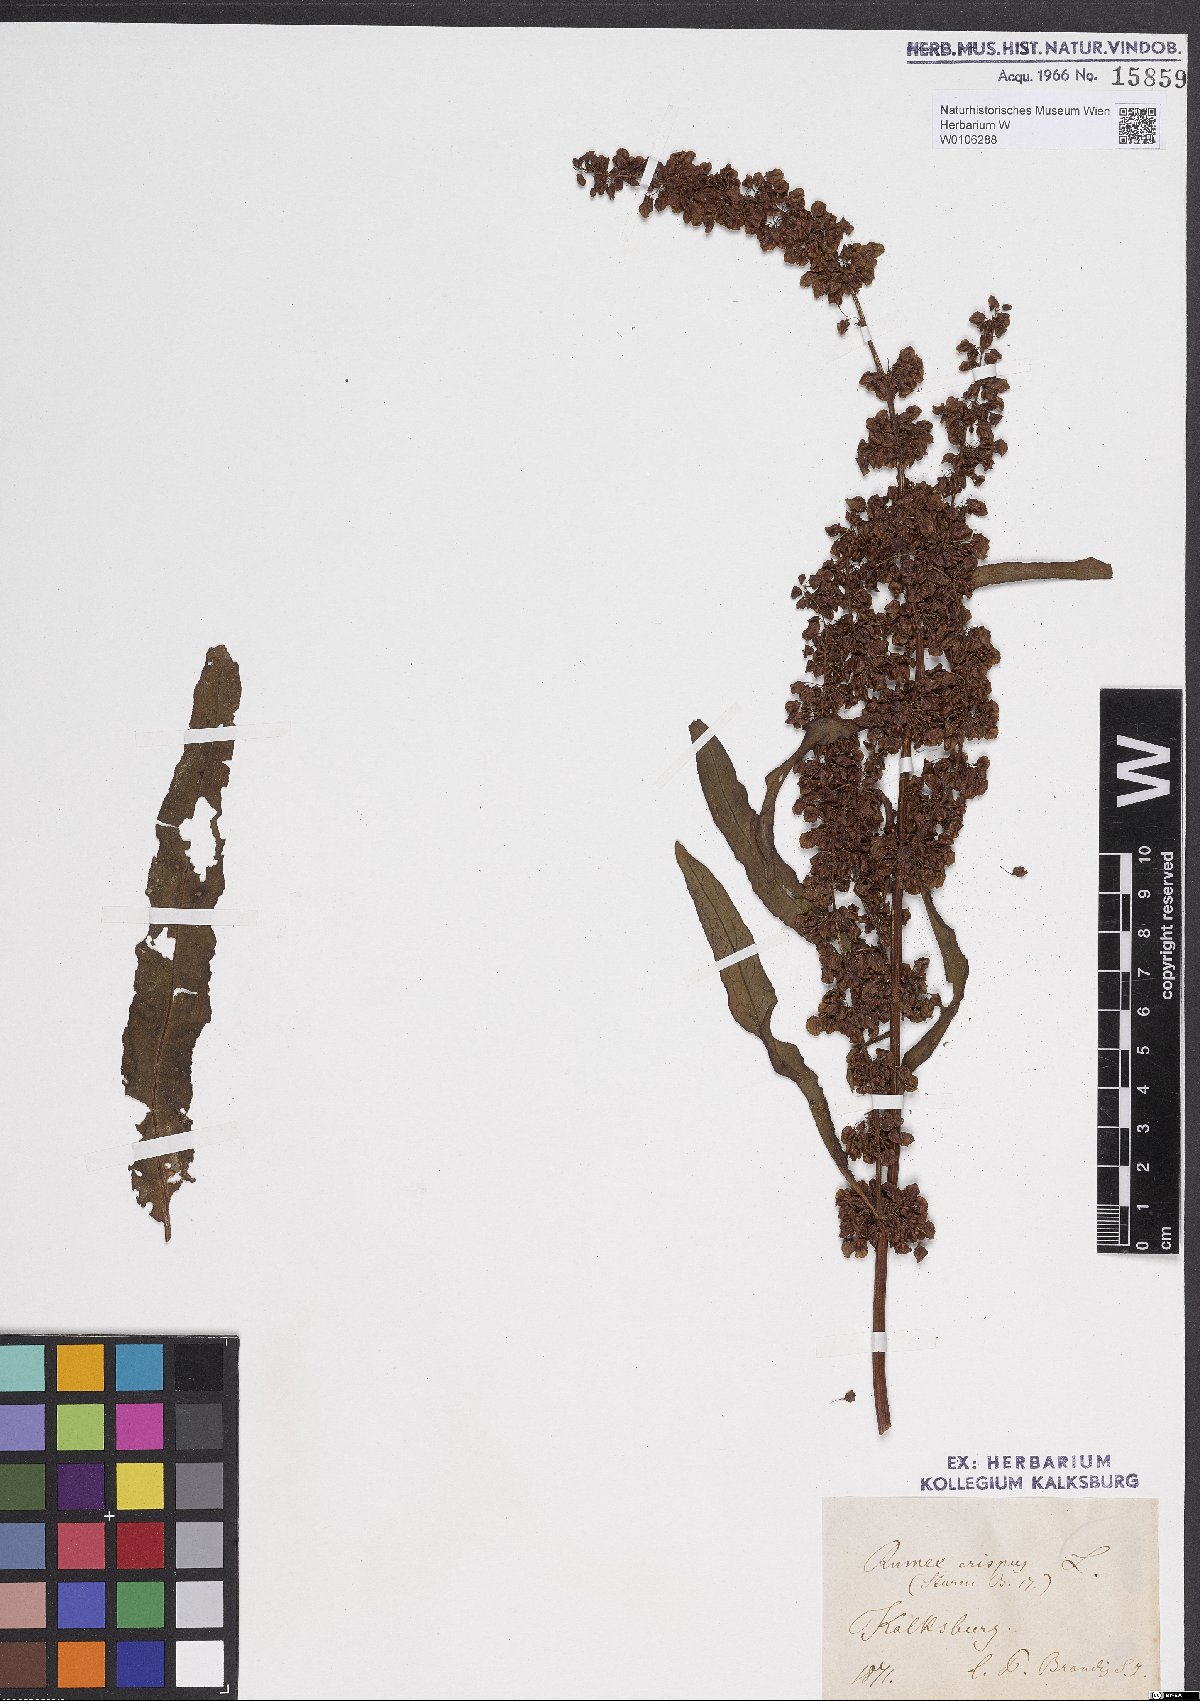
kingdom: Plantae
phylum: Tracheophyta
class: Magnoliopsida
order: Caryophyllales
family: Polygonaceae
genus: Rumex
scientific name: Rumex crispus
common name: Curled dock
